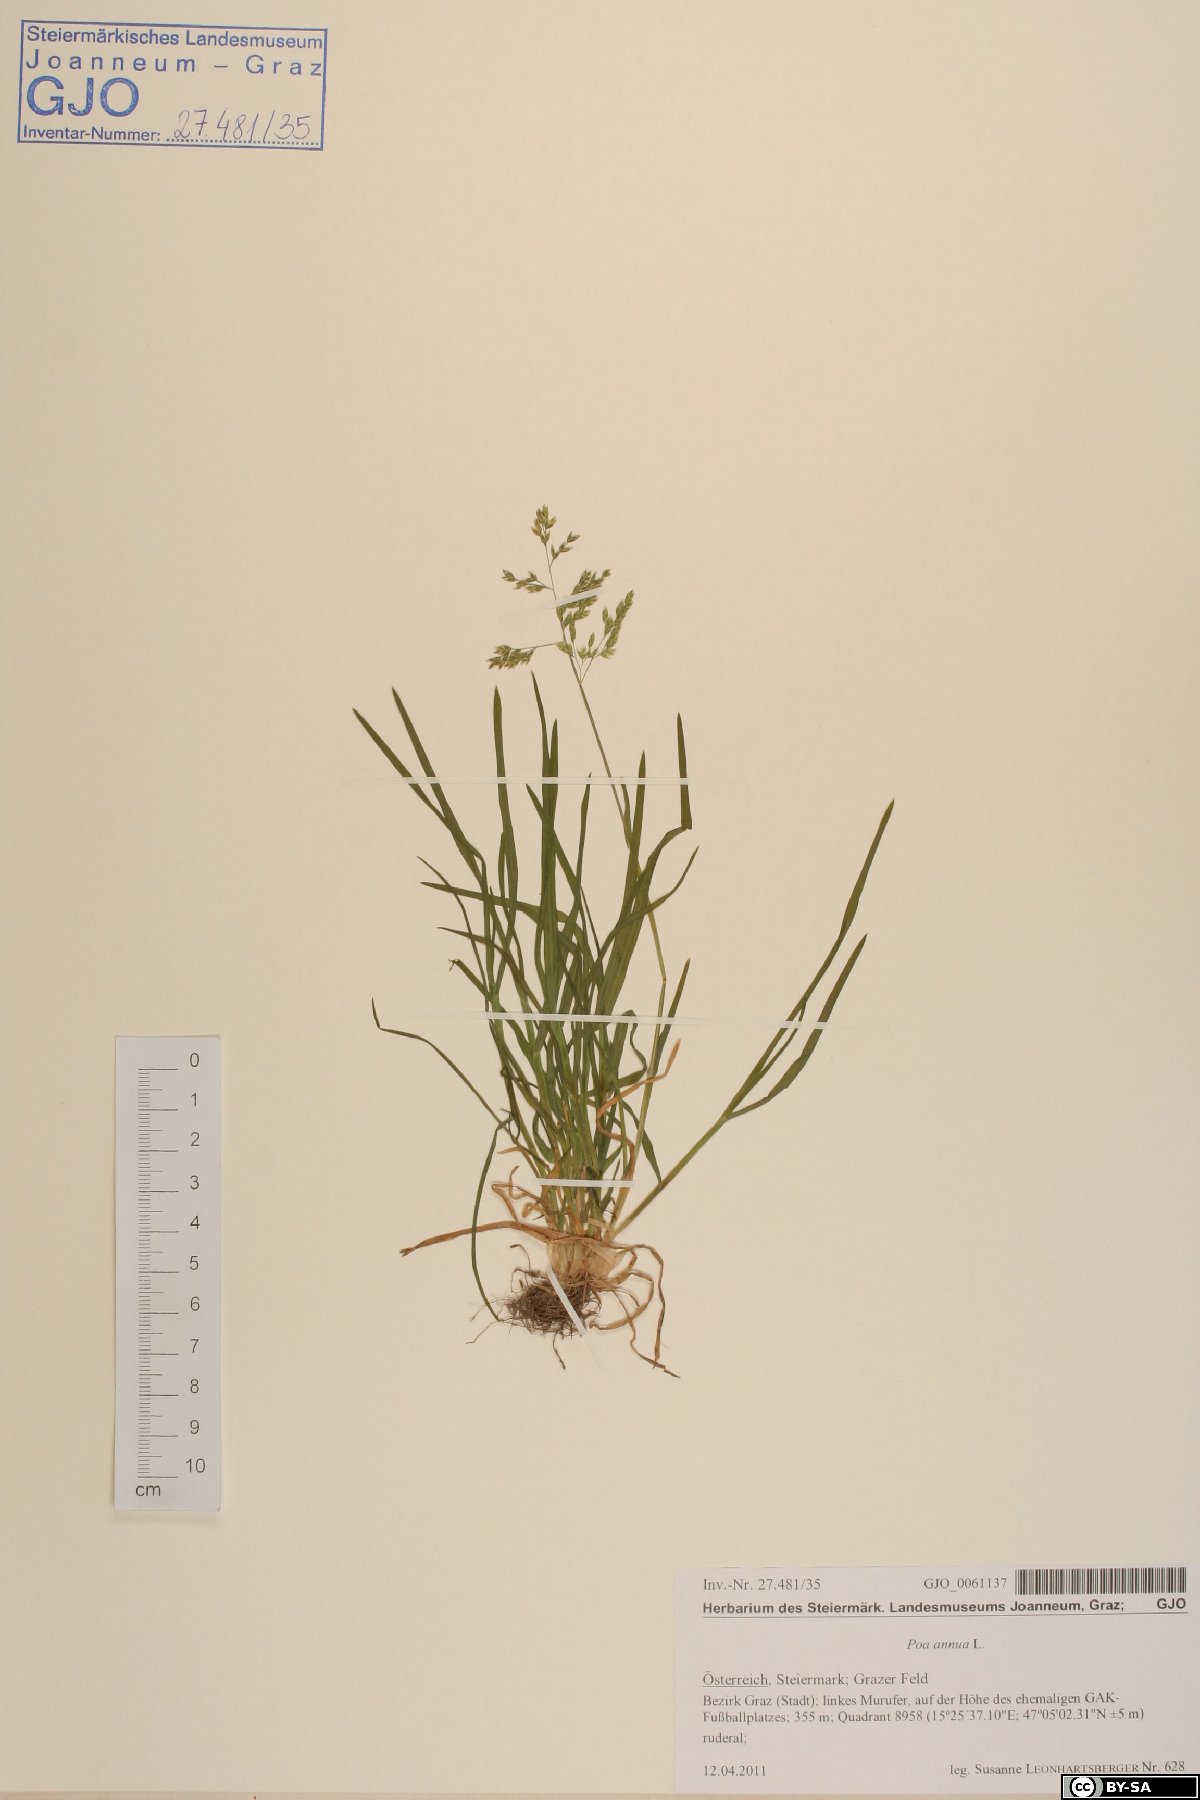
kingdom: Plantae
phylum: Tracheophyta
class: Liliopsida
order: Poales
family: Poaceae
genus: Poa
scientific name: Poa annua
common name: Annual bluegrass
